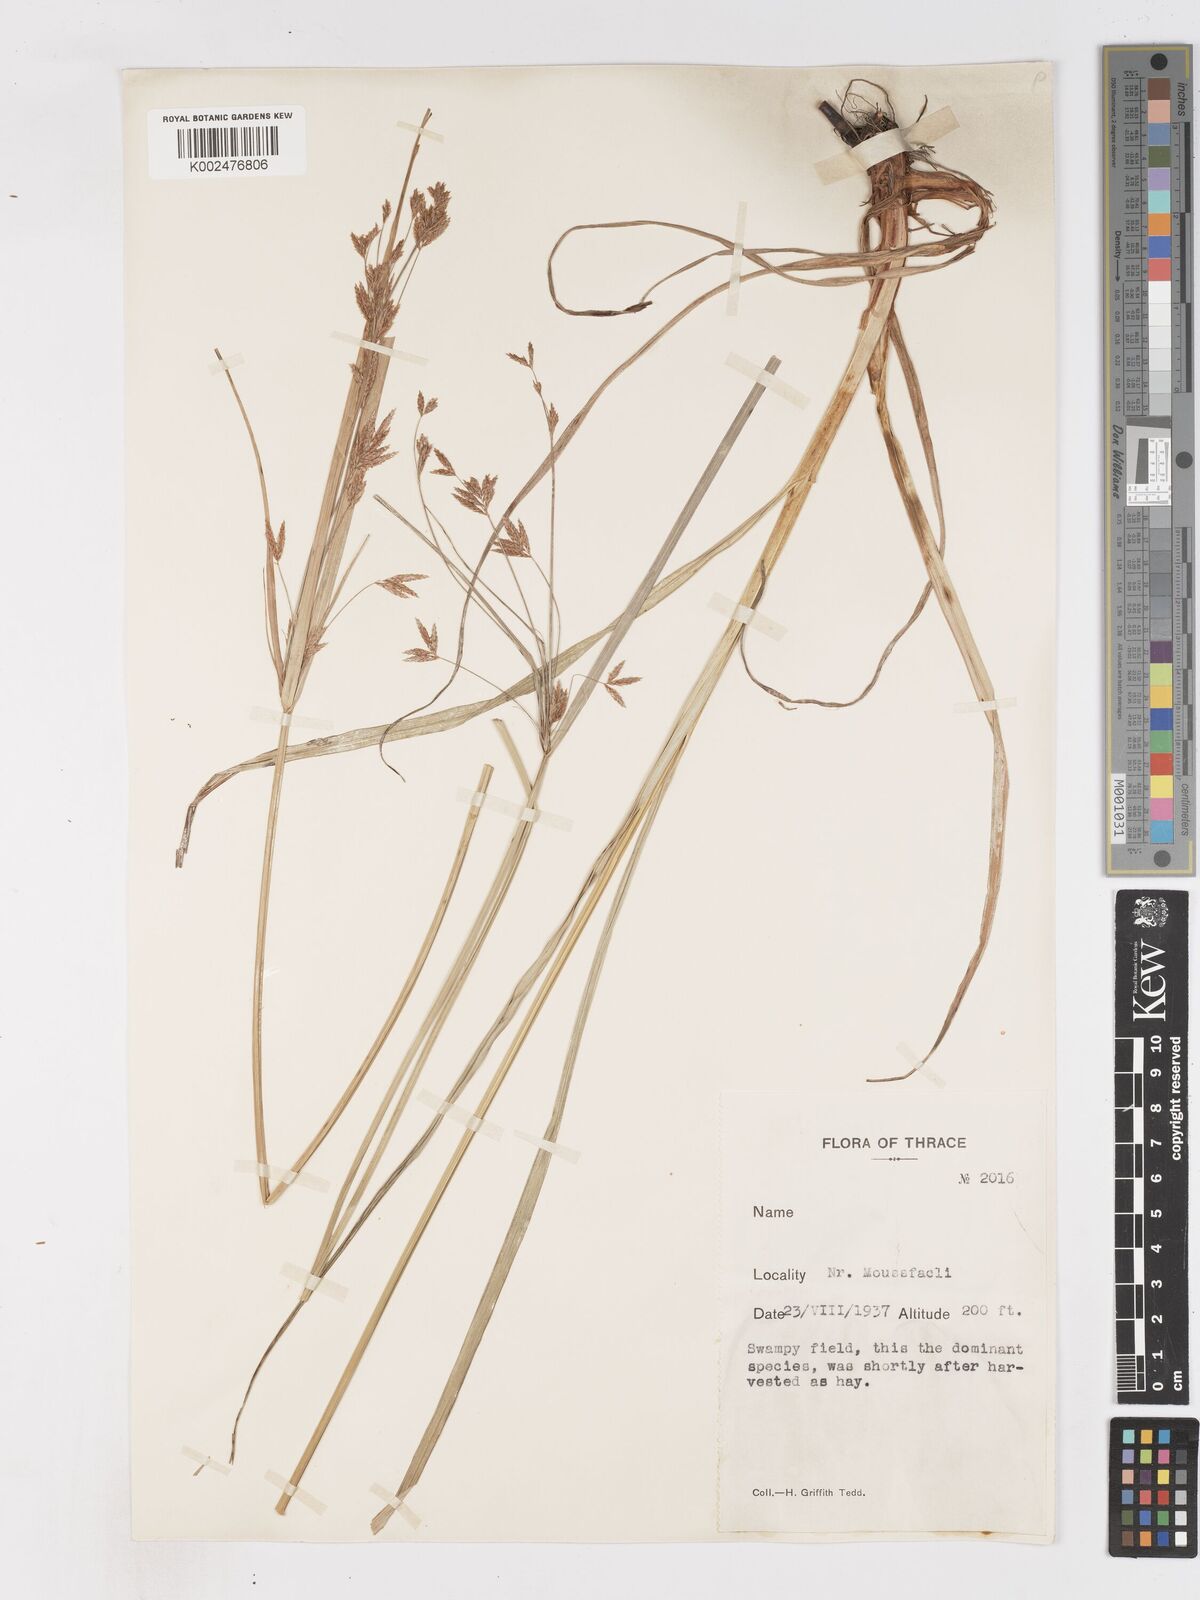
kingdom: Plantae
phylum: Tracheophyta
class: Liliopsida
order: Poales
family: Cyperaceae
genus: Cyperus
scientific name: Cyperus longus
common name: Galingale
